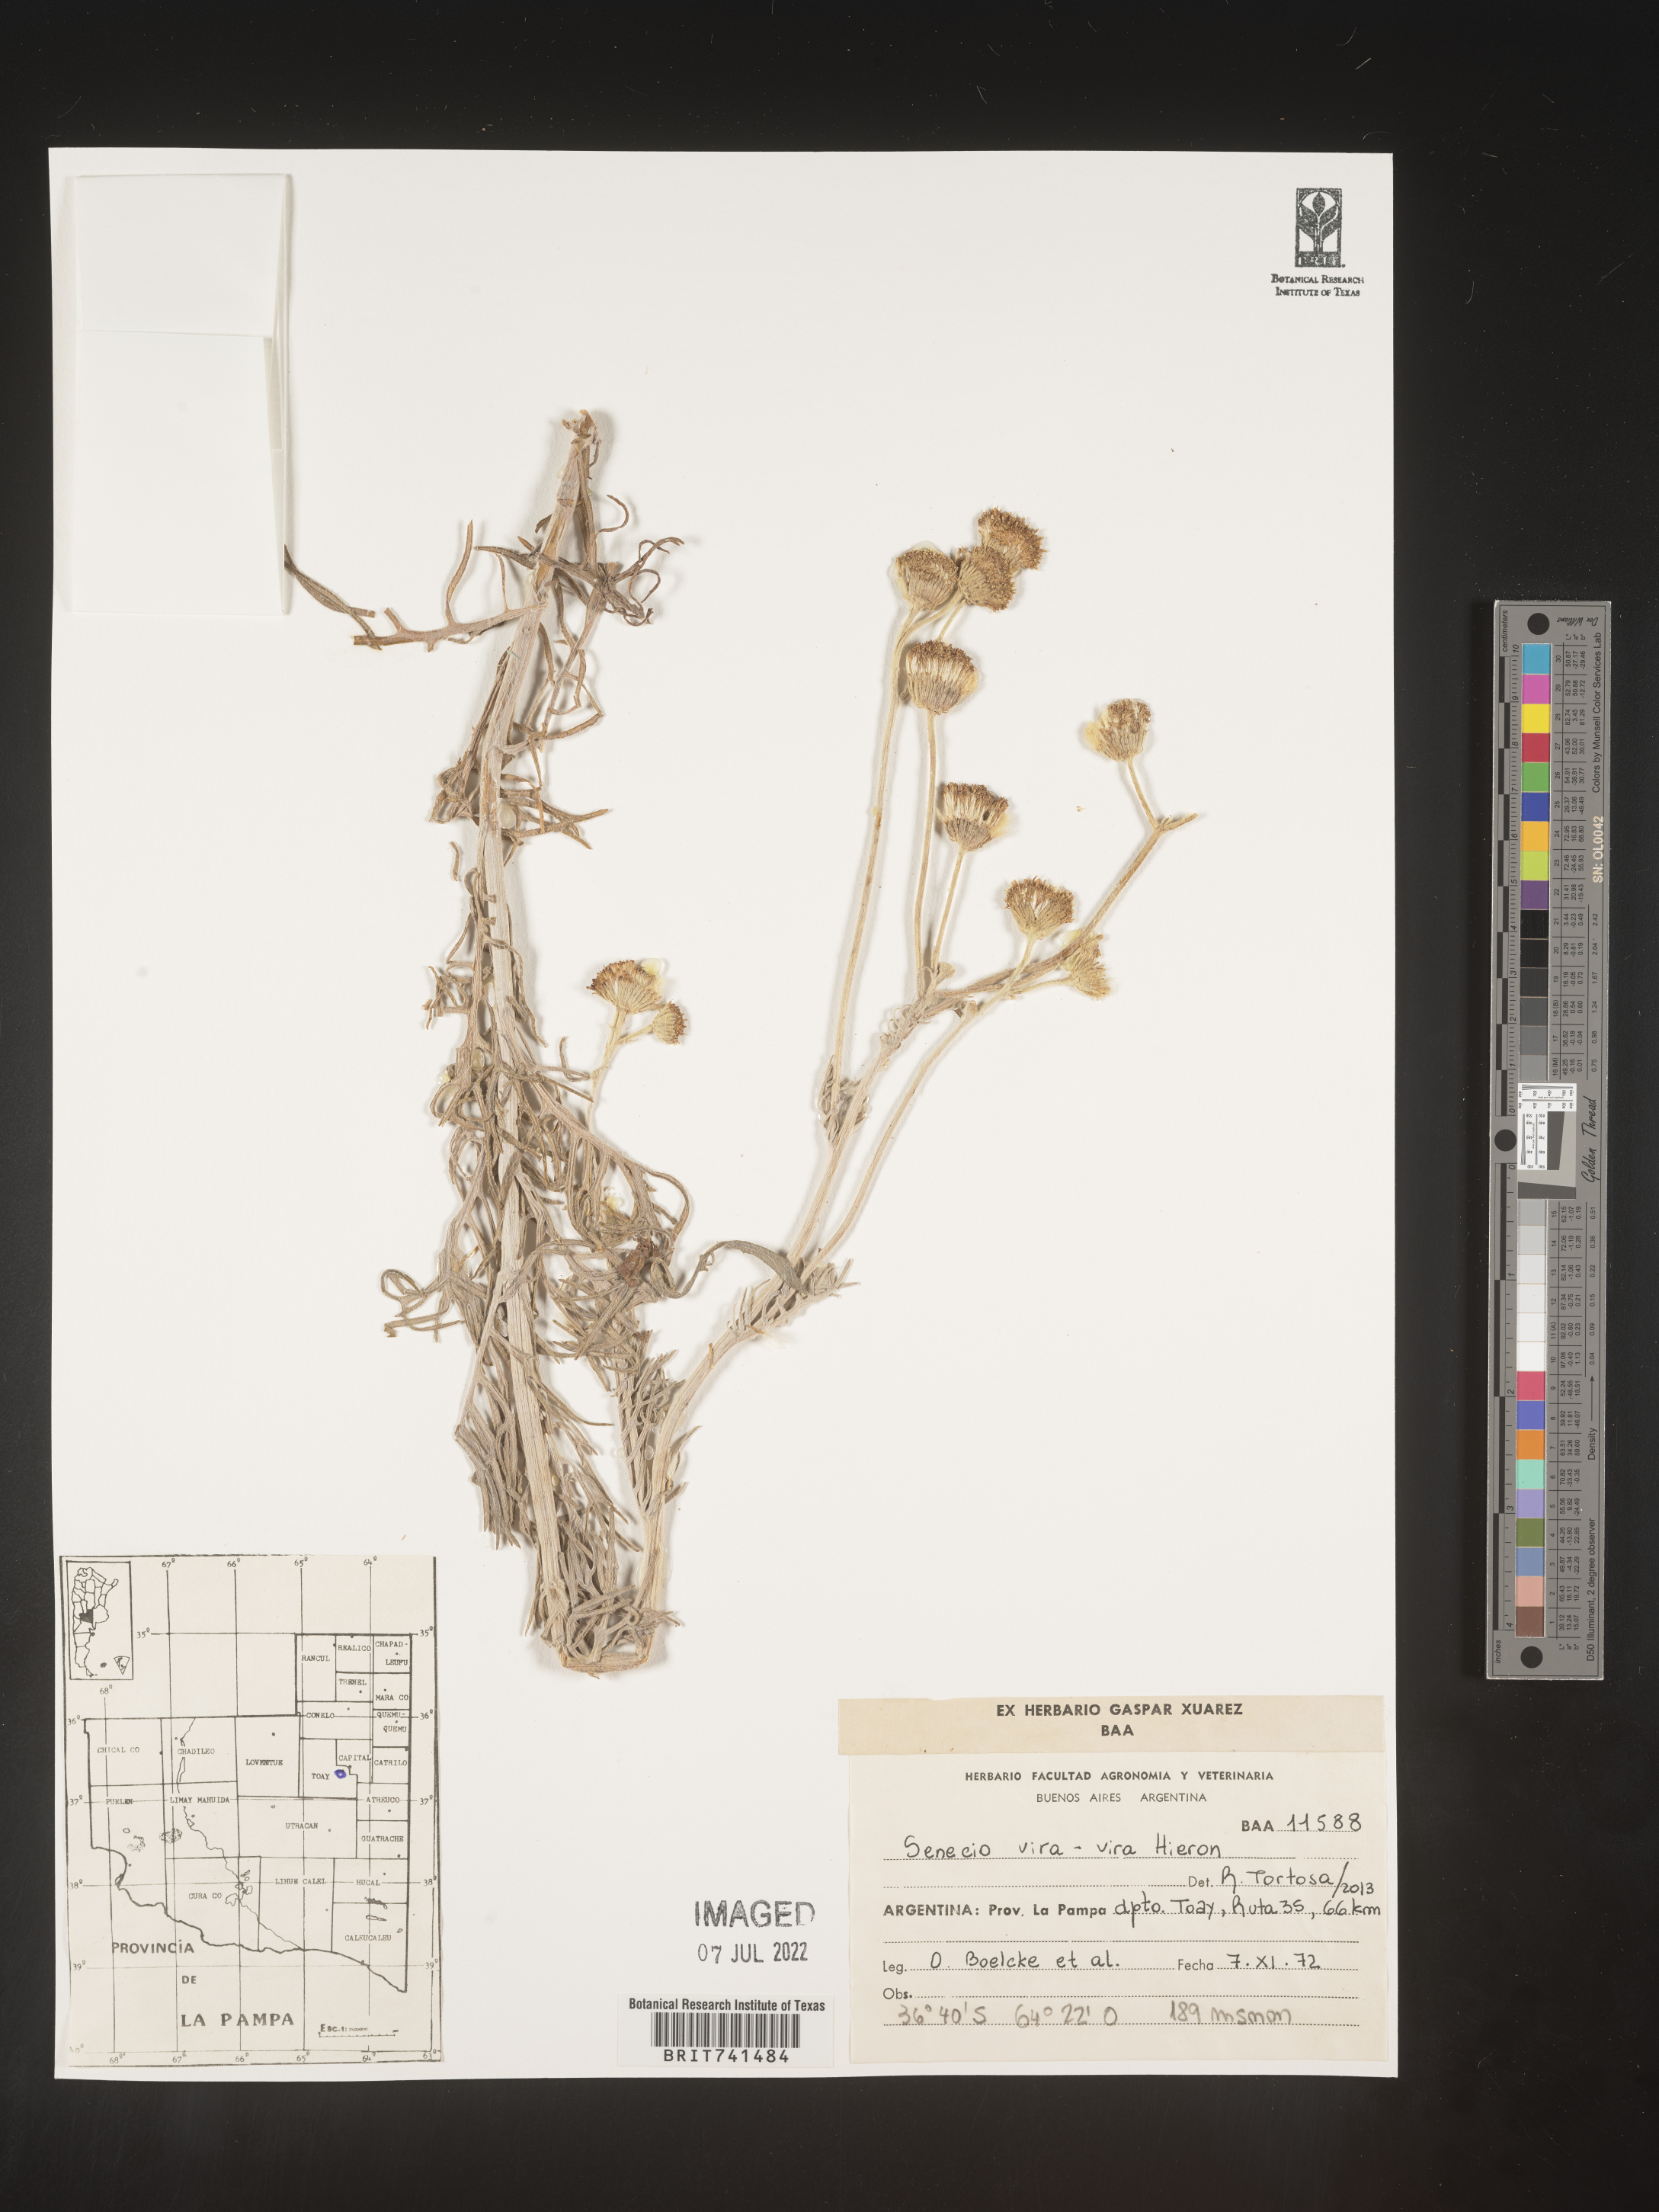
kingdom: Plantae
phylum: Tracheophyta
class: Magnoliopsida
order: Asterales
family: Asteraceae
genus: Senecio
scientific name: Senecio
